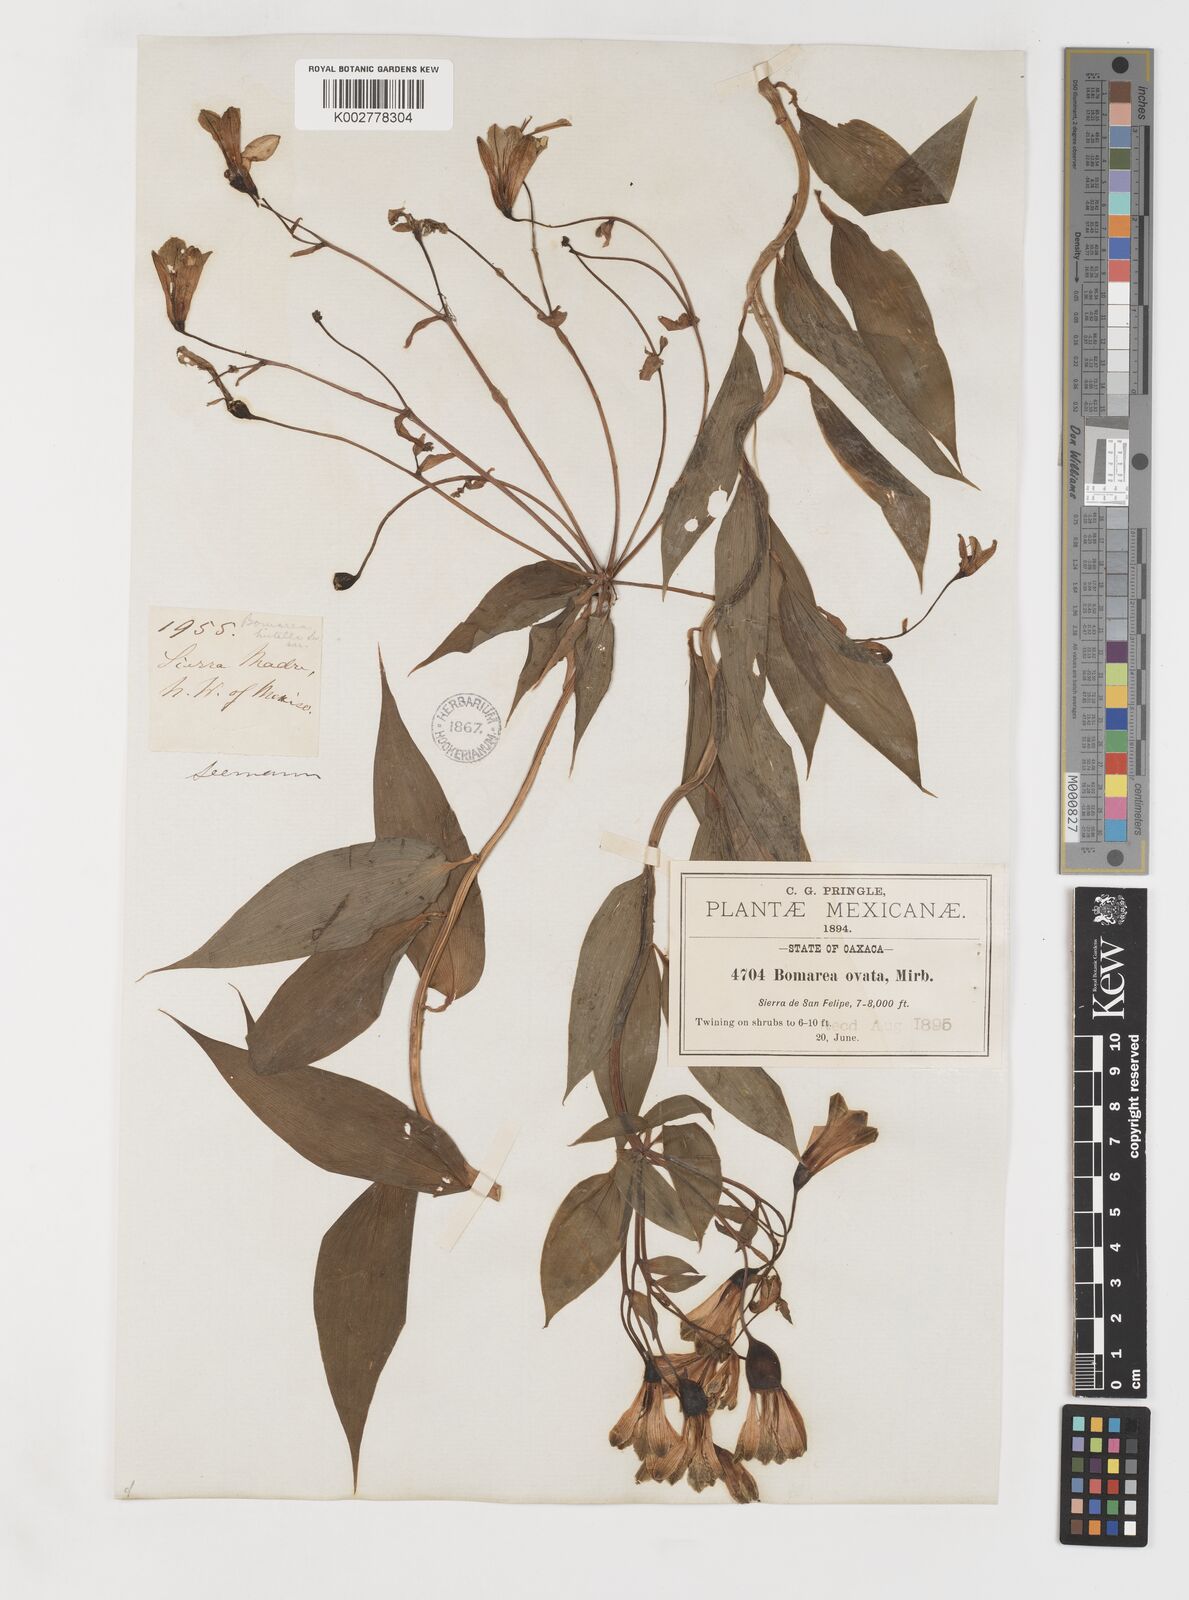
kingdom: Plantae
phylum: Tracheophyta
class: Liliopsida
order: Liliales
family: Alstroemeriaceae
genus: Bomarea
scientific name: Bomarea edulis
